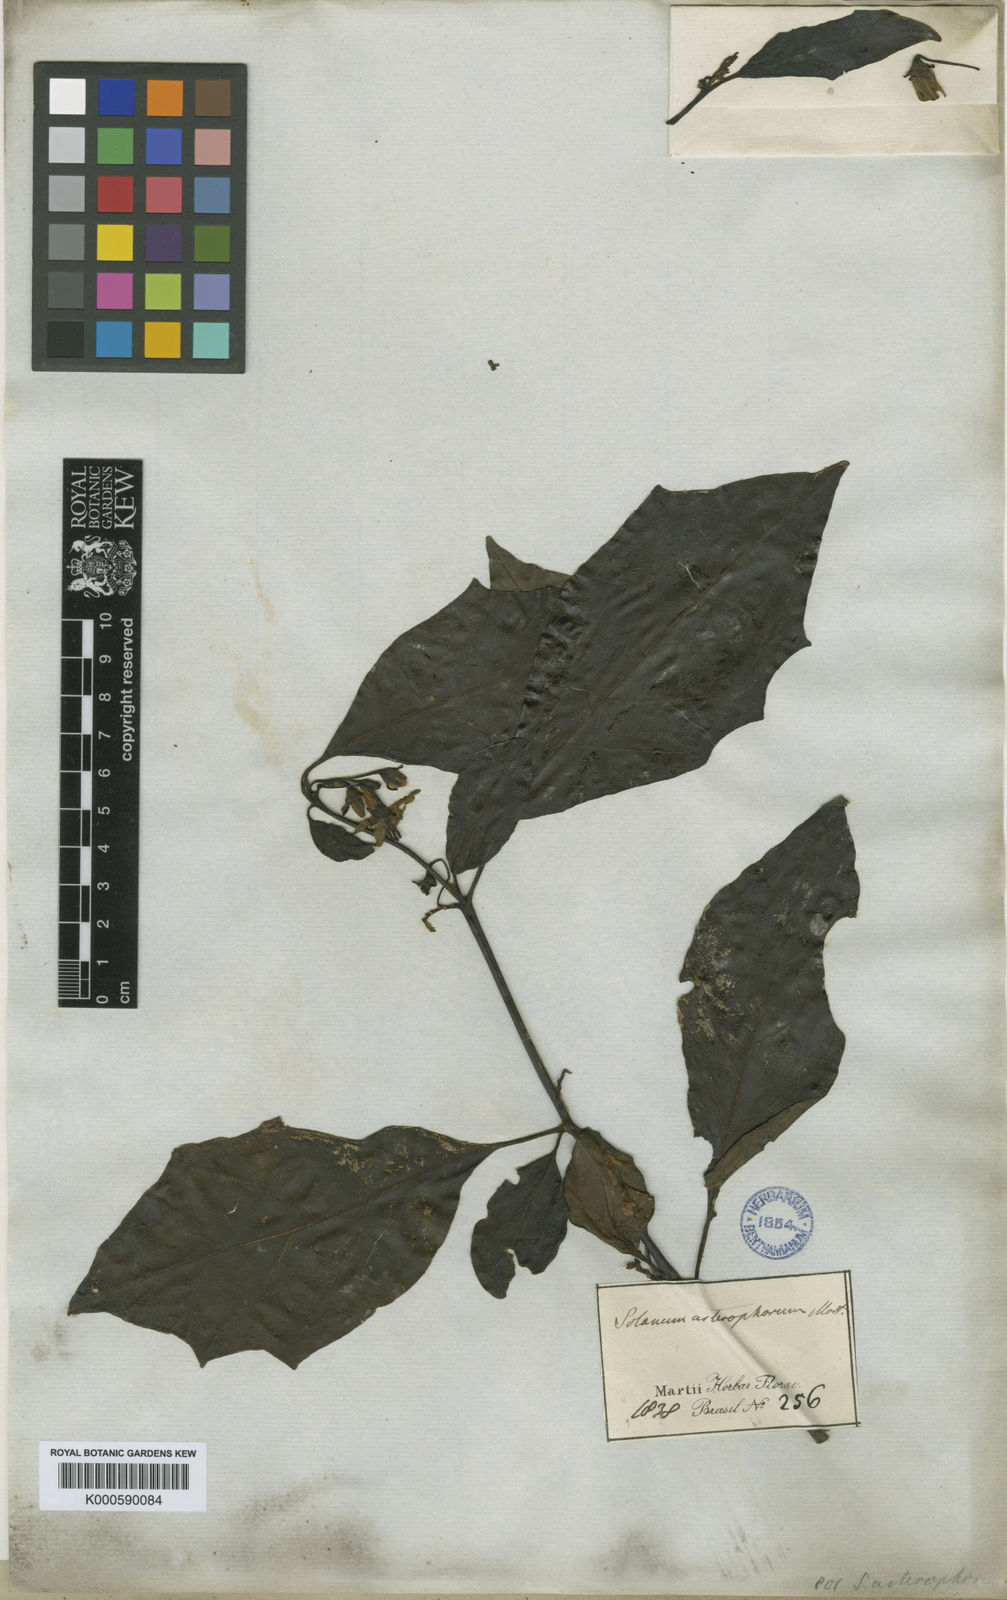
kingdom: Plantae
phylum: Tracheophyta
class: Magnoliopsida
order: Solanales
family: Solanaceae
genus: Solanum
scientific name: Solanum asterophorum
